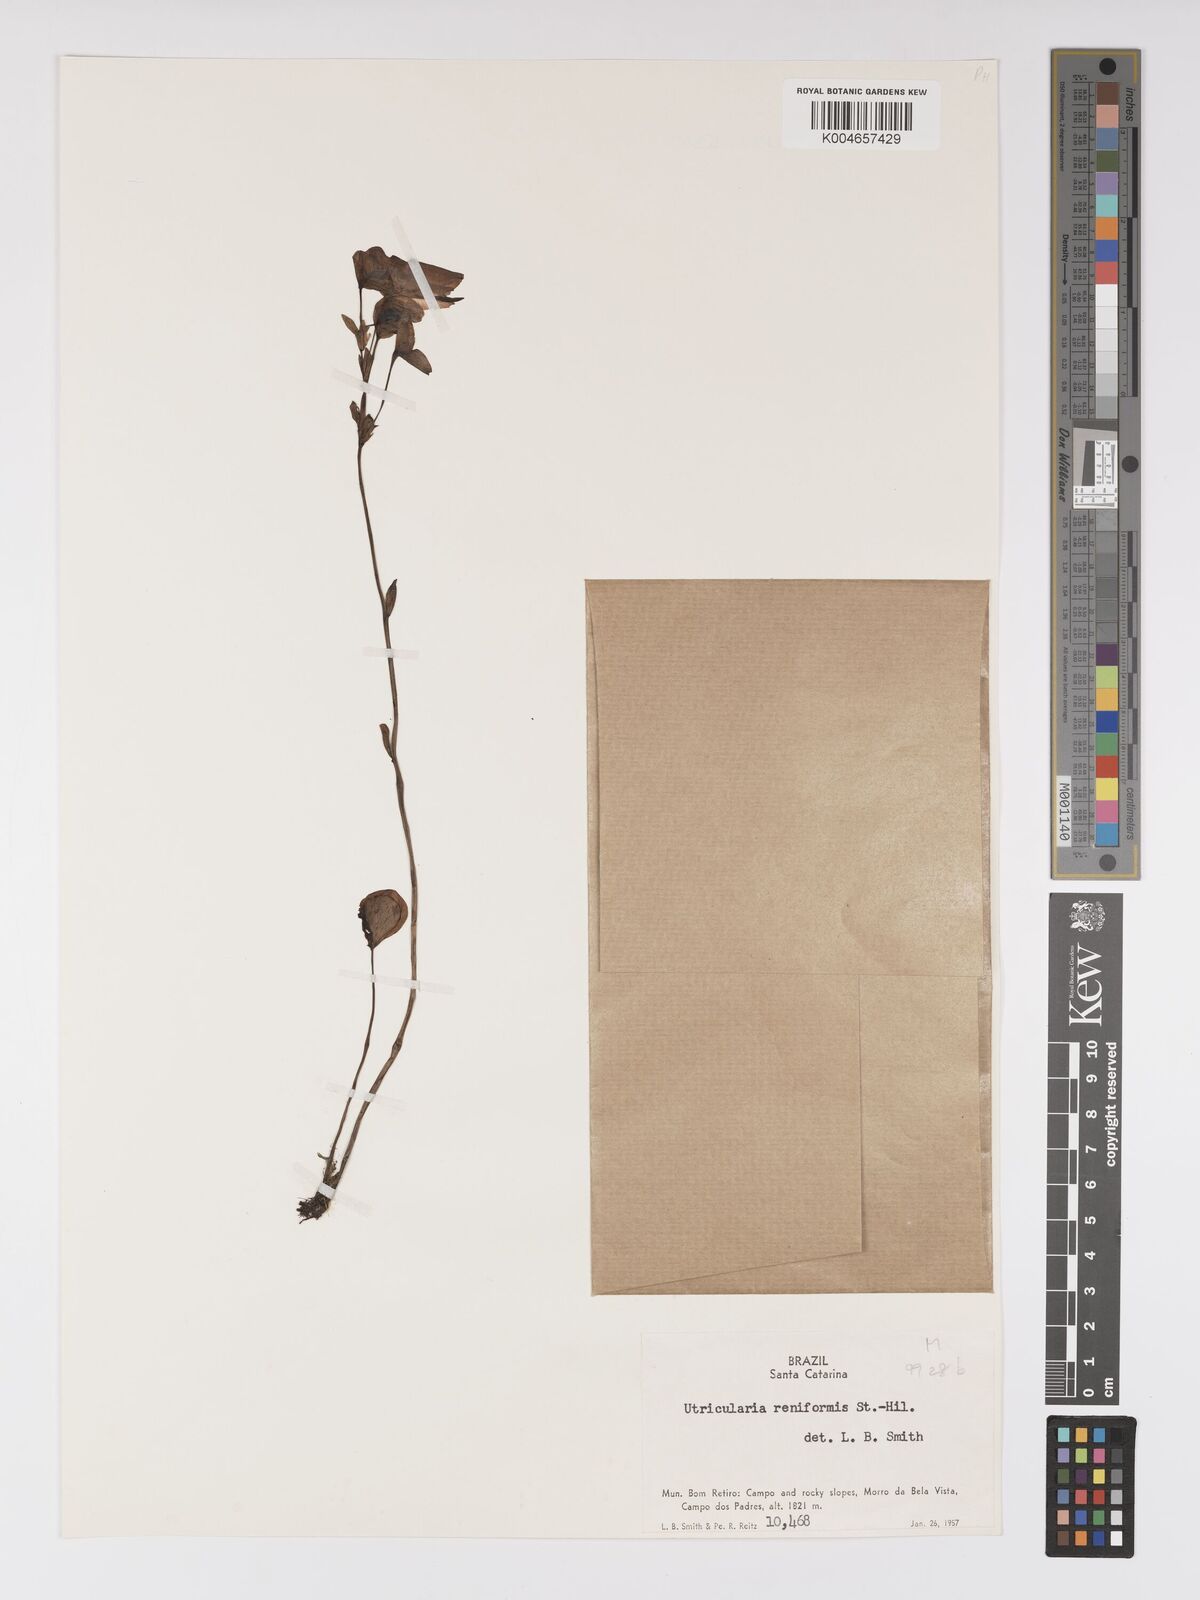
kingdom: Plantae
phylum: Tracheophyta
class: Magnoliopsida
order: Lamiales
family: Lentibulariaceae
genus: Utricularia
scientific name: Utricularia reniformis
